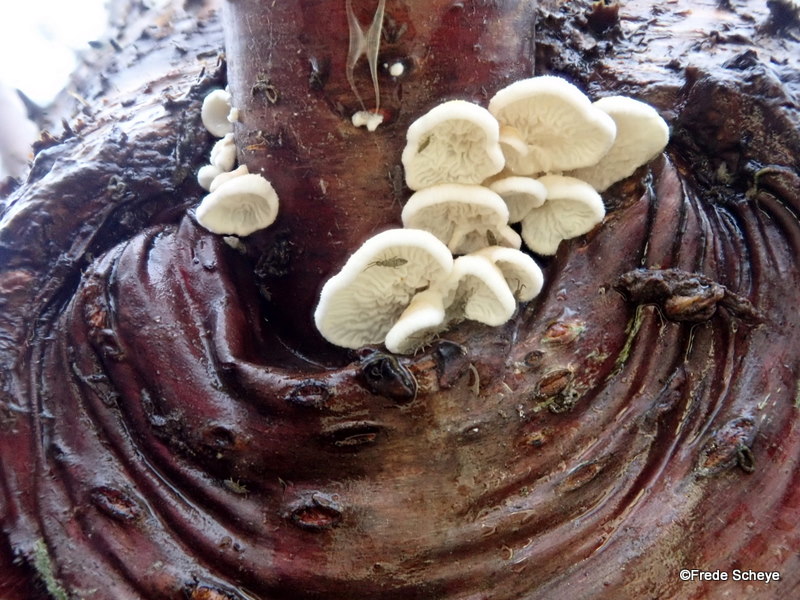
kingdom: Fungi
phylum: Basidiomycota
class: Agaricomycetes
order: Amylocorticiales
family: Amylocorticiaceae
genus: Plicaturopsis
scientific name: Plicaturopsis crispa
